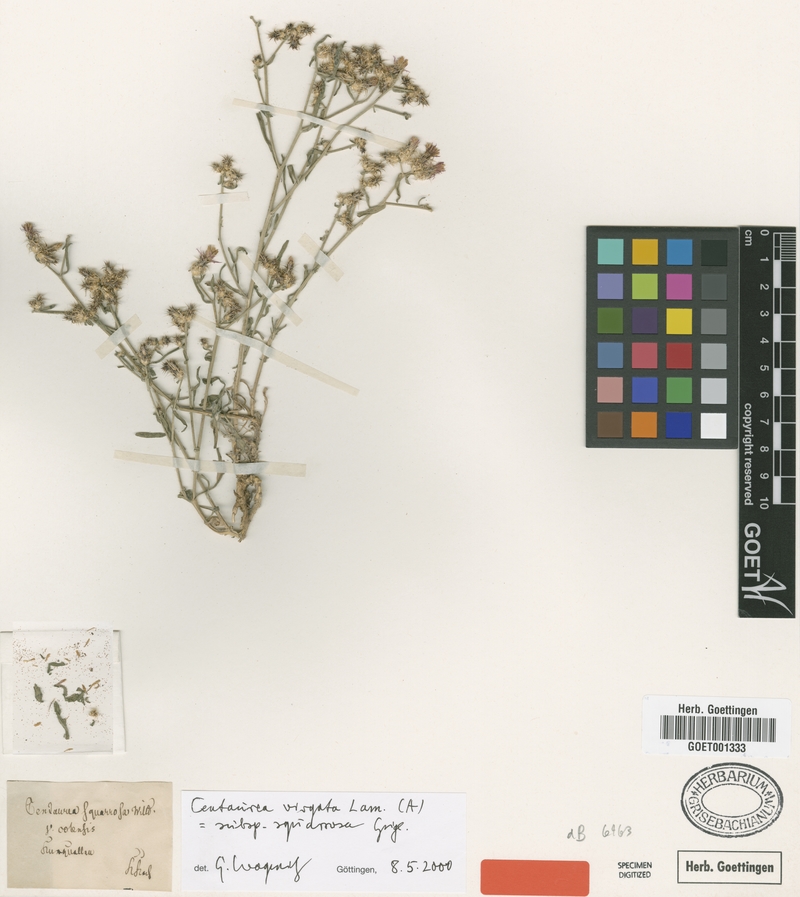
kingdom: Plantae
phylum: Tracheophyta
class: Magnoliopsida
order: Asterales
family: Asteraceae
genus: Centaurea
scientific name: Centaurea virgata
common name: Squarrose knapweed
